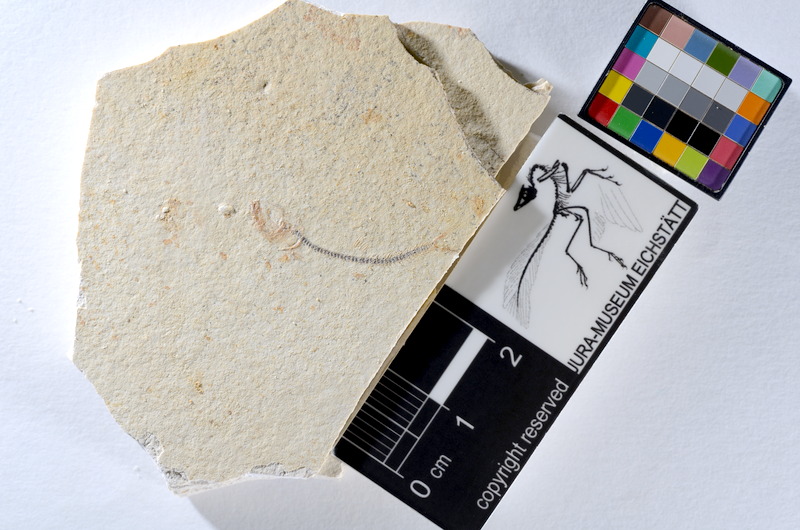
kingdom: Animalia
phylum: Chordata
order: Salmoniformes
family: Orthogonikleithridae
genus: Orthogonikleithrus
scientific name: Orthogonikleithrus hoelli
